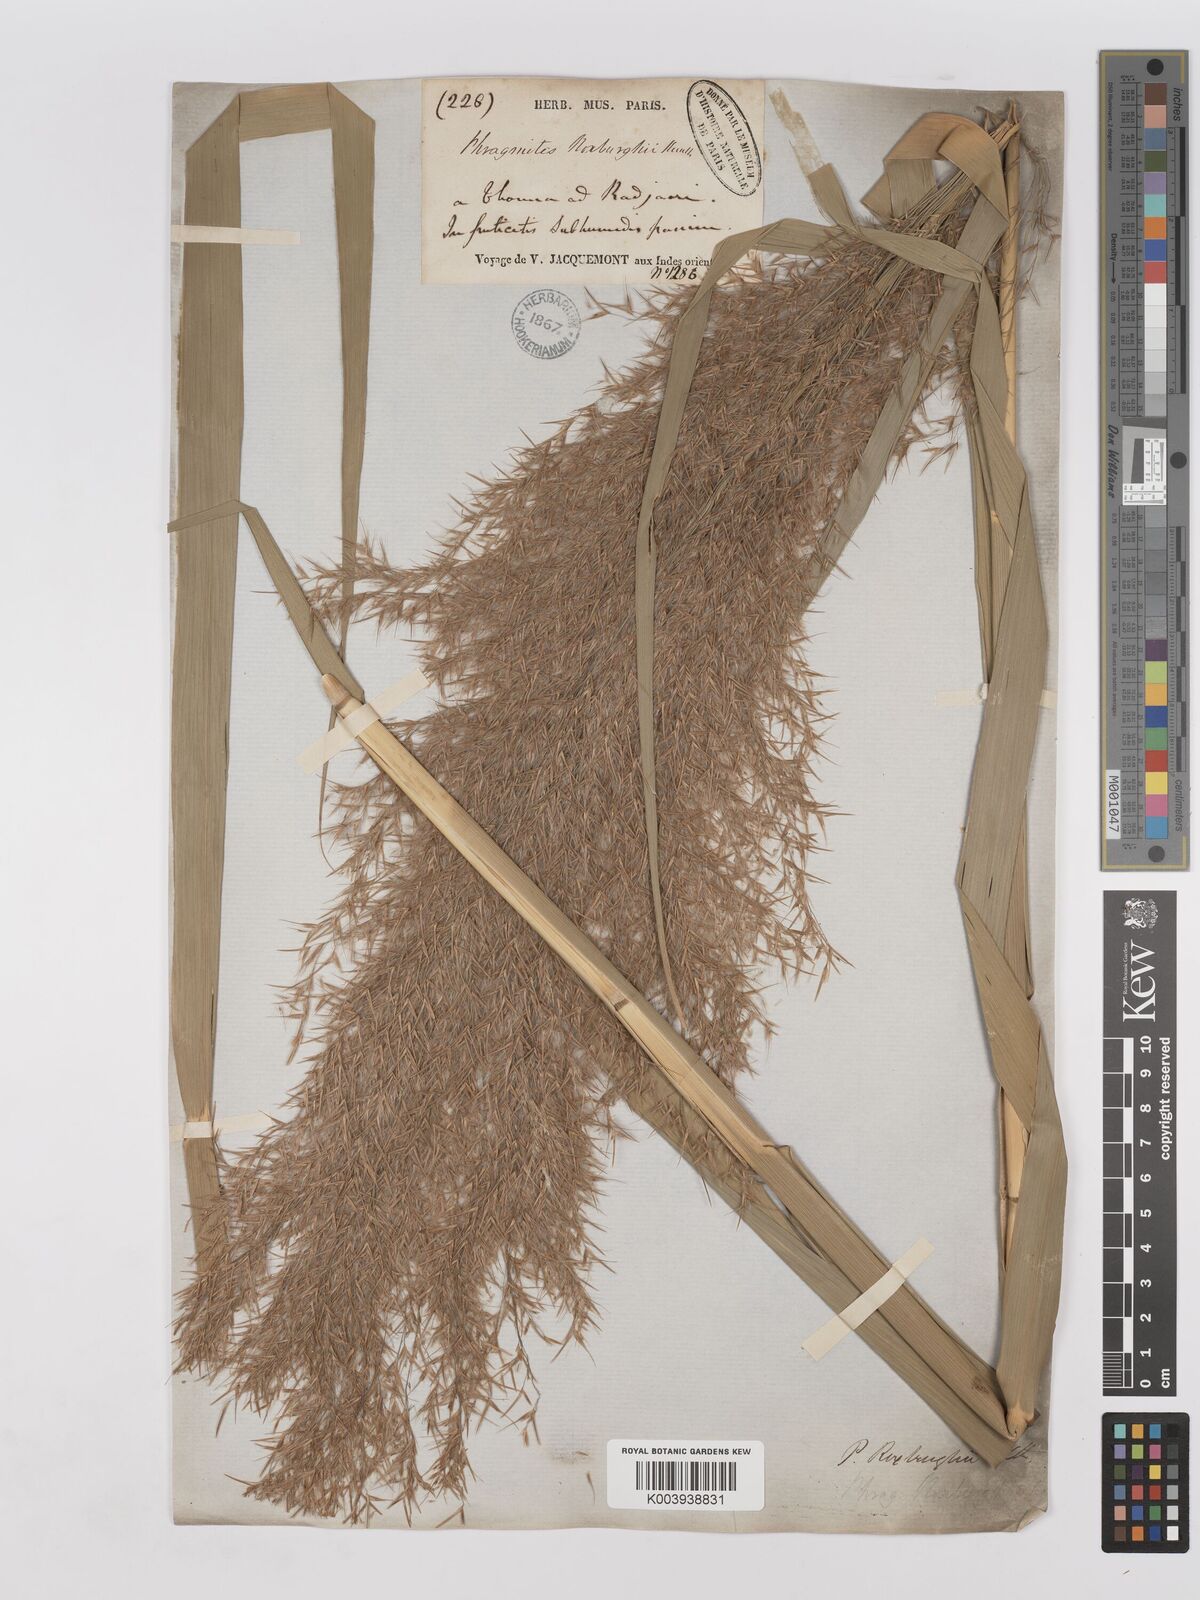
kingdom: Plantae
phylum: Tracheophyta
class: Liliopsida
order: Poales
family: Poaceae
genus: Phragmites
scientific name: Phragmites karka
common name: Tropical reed
